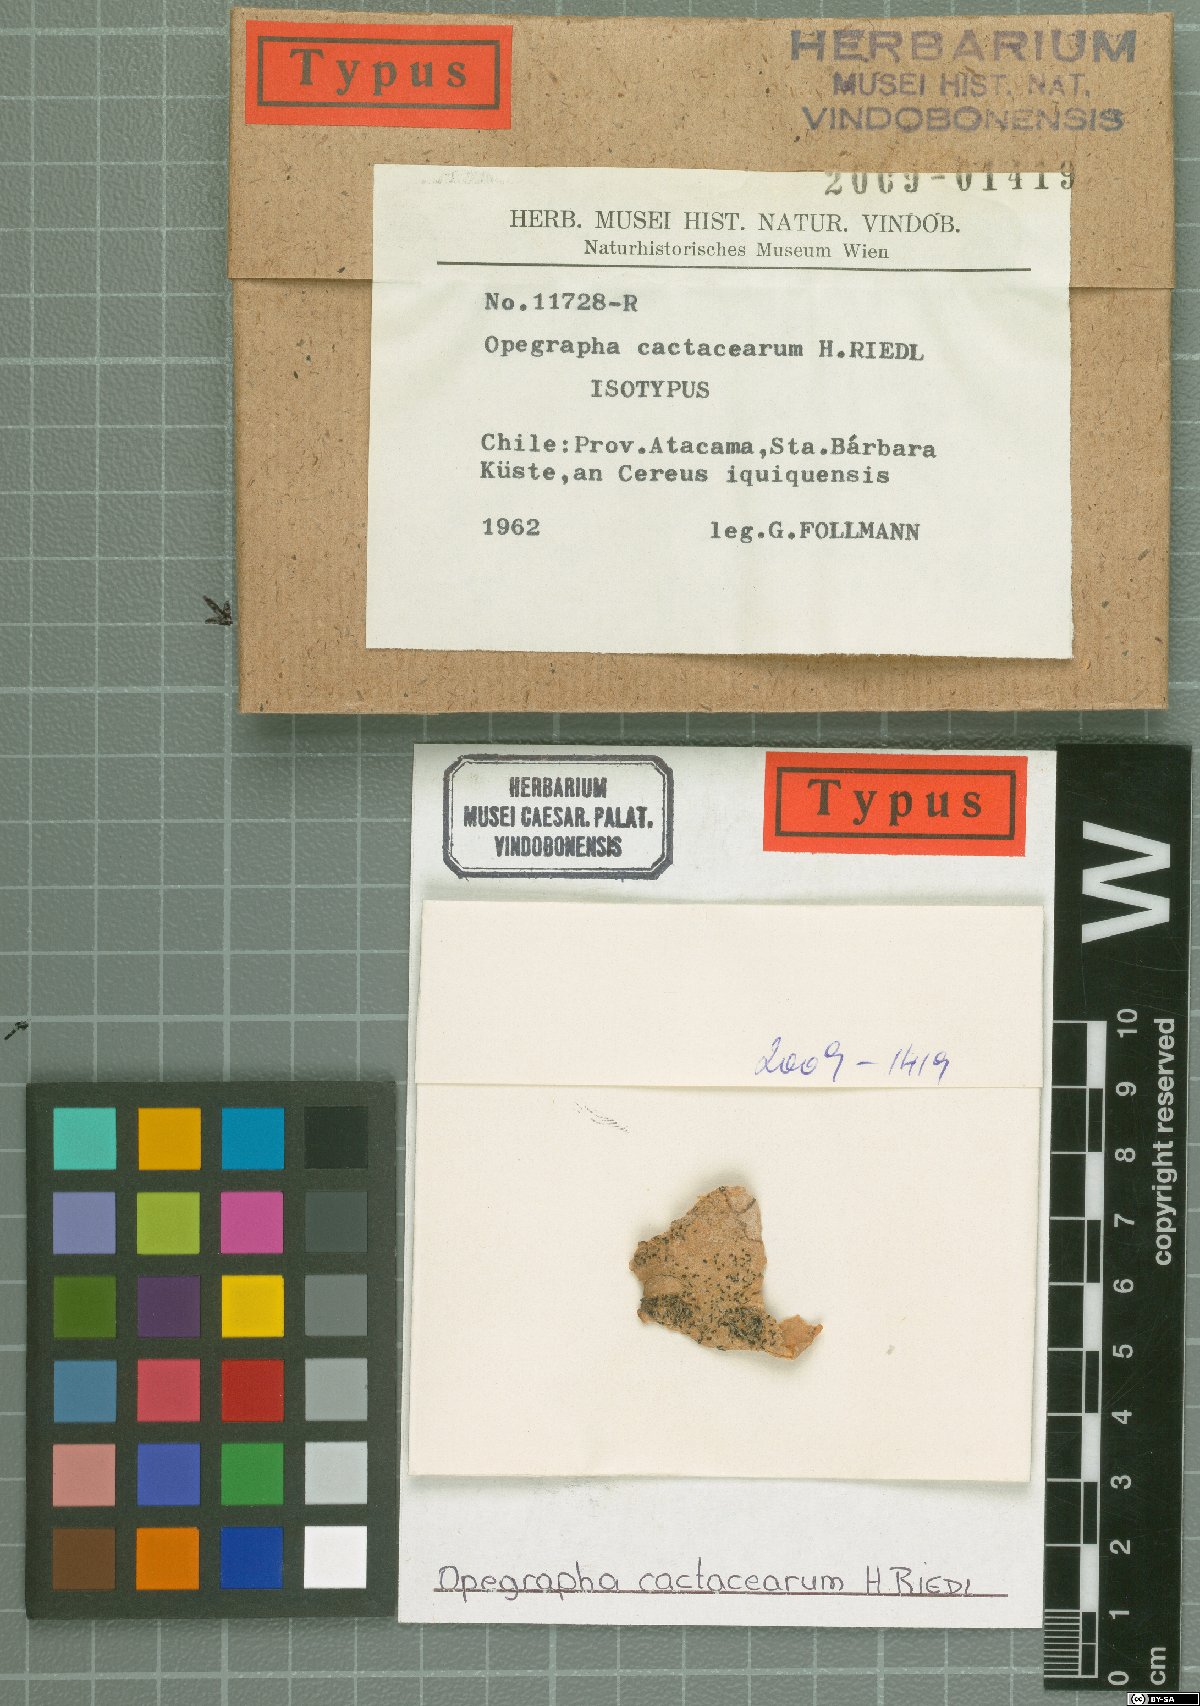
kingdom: Fungi
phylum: Ascomycota
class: Arthoniomycetes
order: Arthoniales
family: Opegraphaceae
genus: Opegrapha
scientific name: Opegrapha
